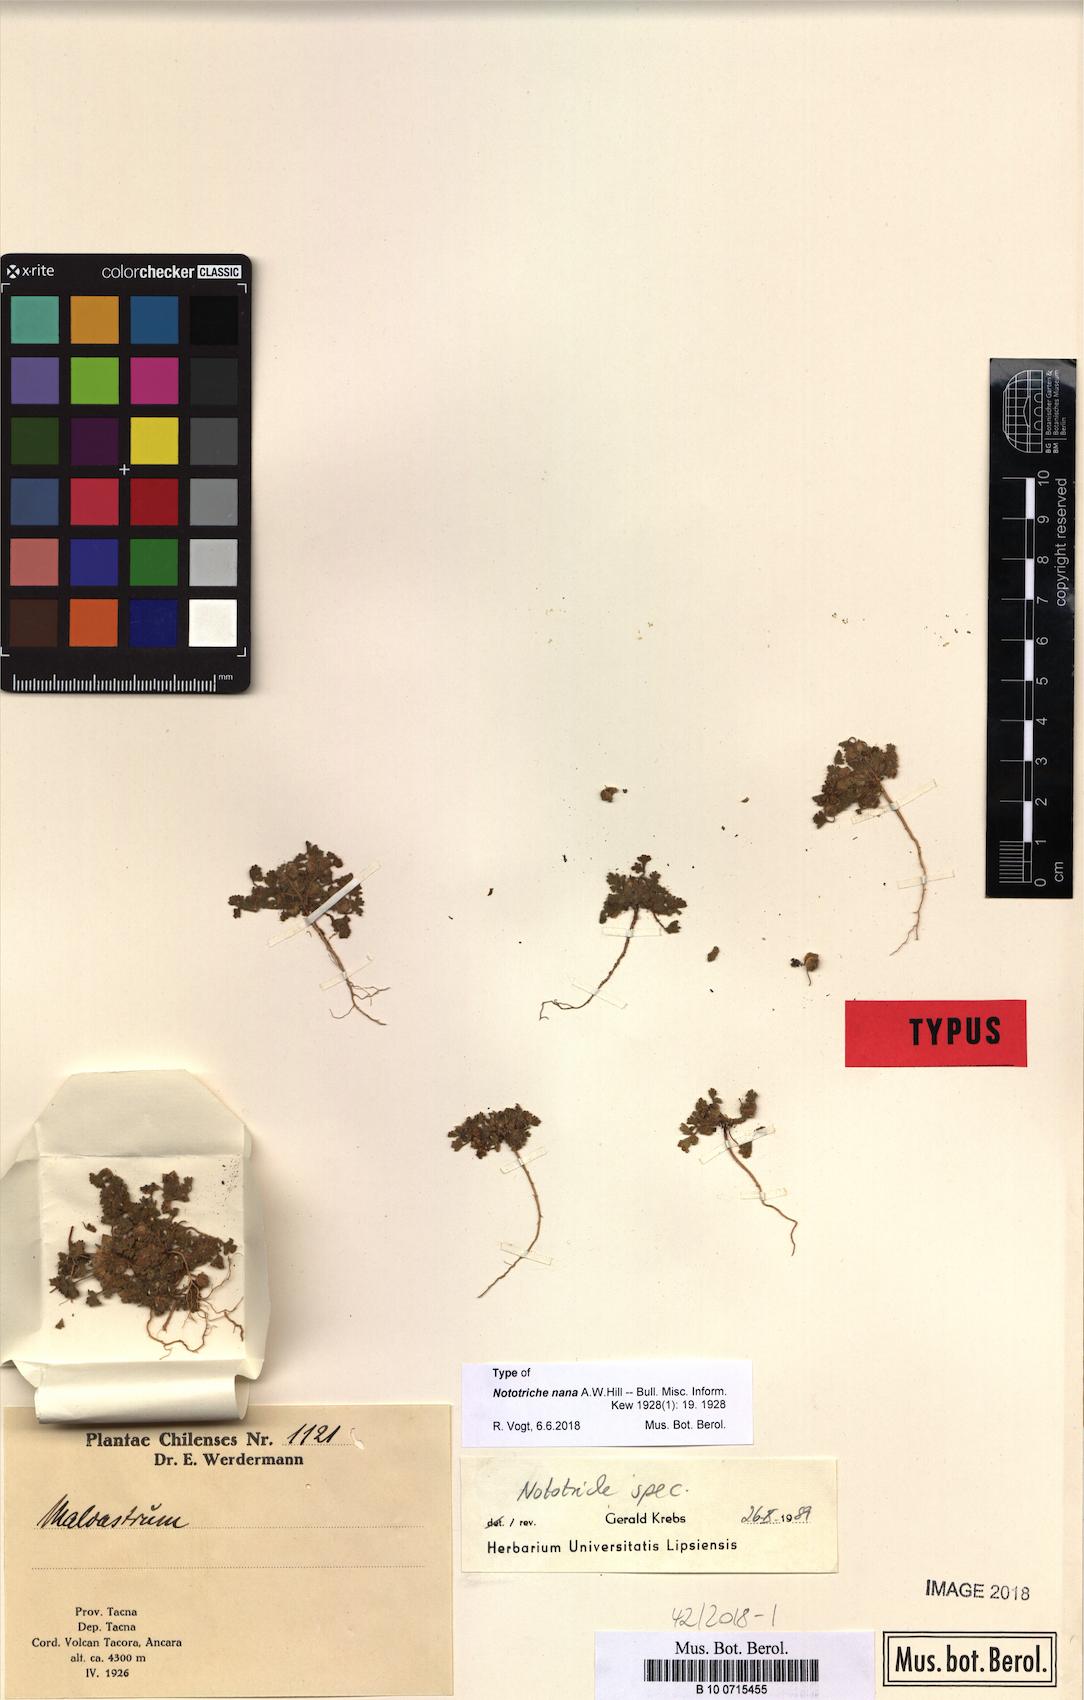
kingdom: Plantae
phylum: Tracheophyta
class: Magnoliopsida
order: Malvales
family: Malvaceae
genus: Nototriche
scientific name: Nototriche nana
